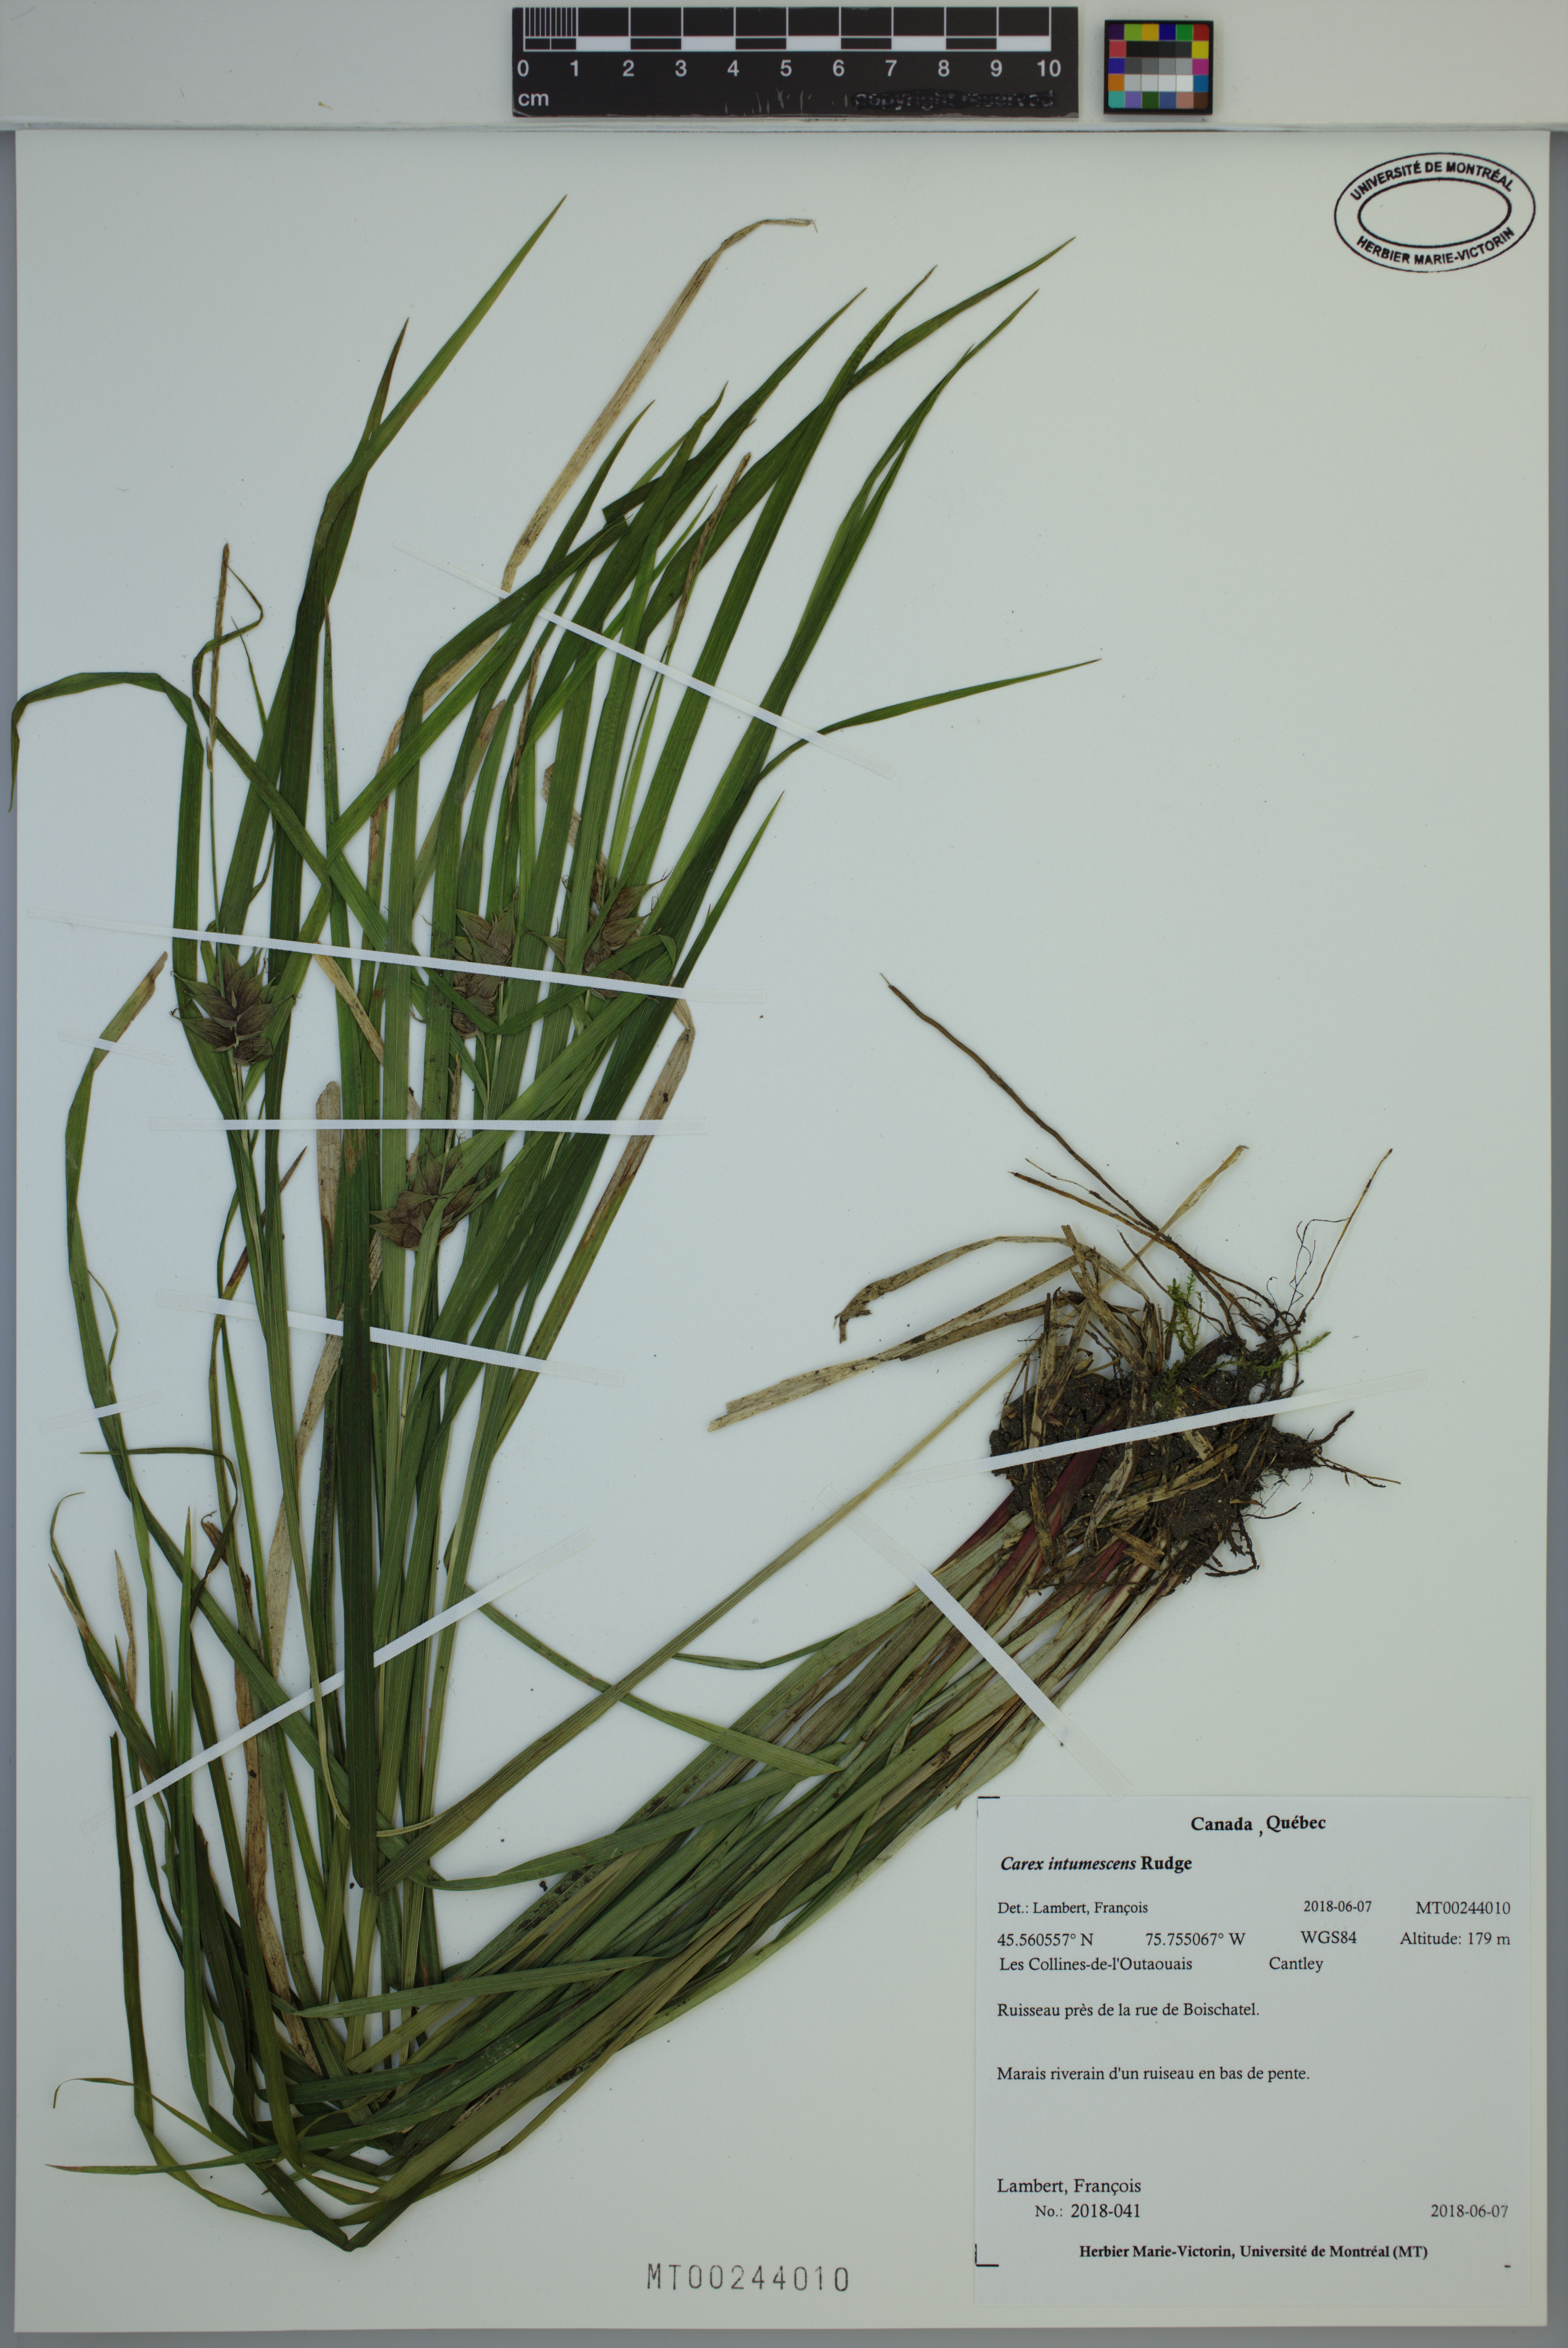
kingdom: Plantae
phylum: Tracheophyta
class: Liliopsida
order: Poales
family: Cyperaceae
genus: Carex
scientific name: Carex intumescens
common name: Greater bladder sedge
